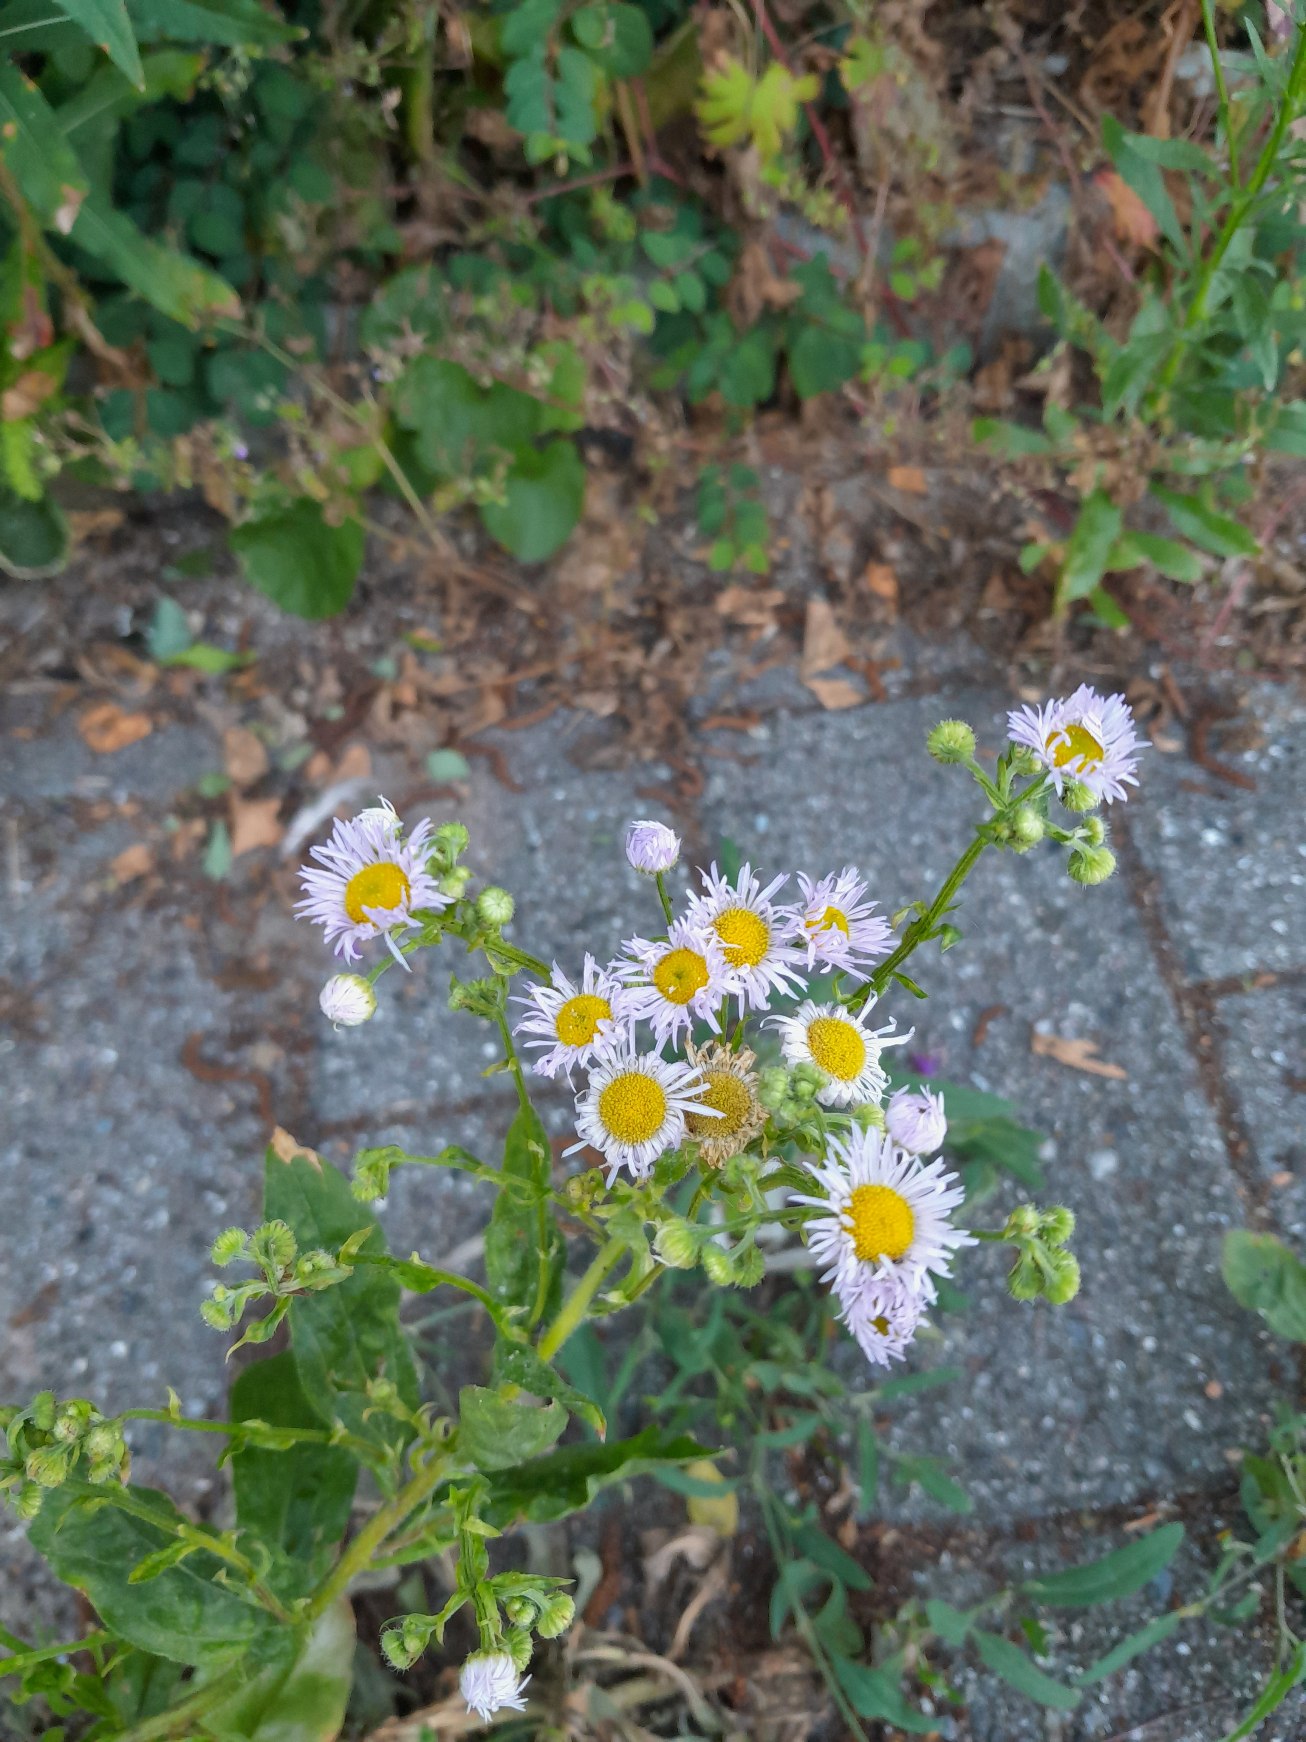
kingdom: Plantae
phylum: Tracheophyta
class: Magnoliopsida
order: Asterales
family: Asteraceae
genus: Erigeron
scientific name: Erigeron annuus
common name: Smalstråle
